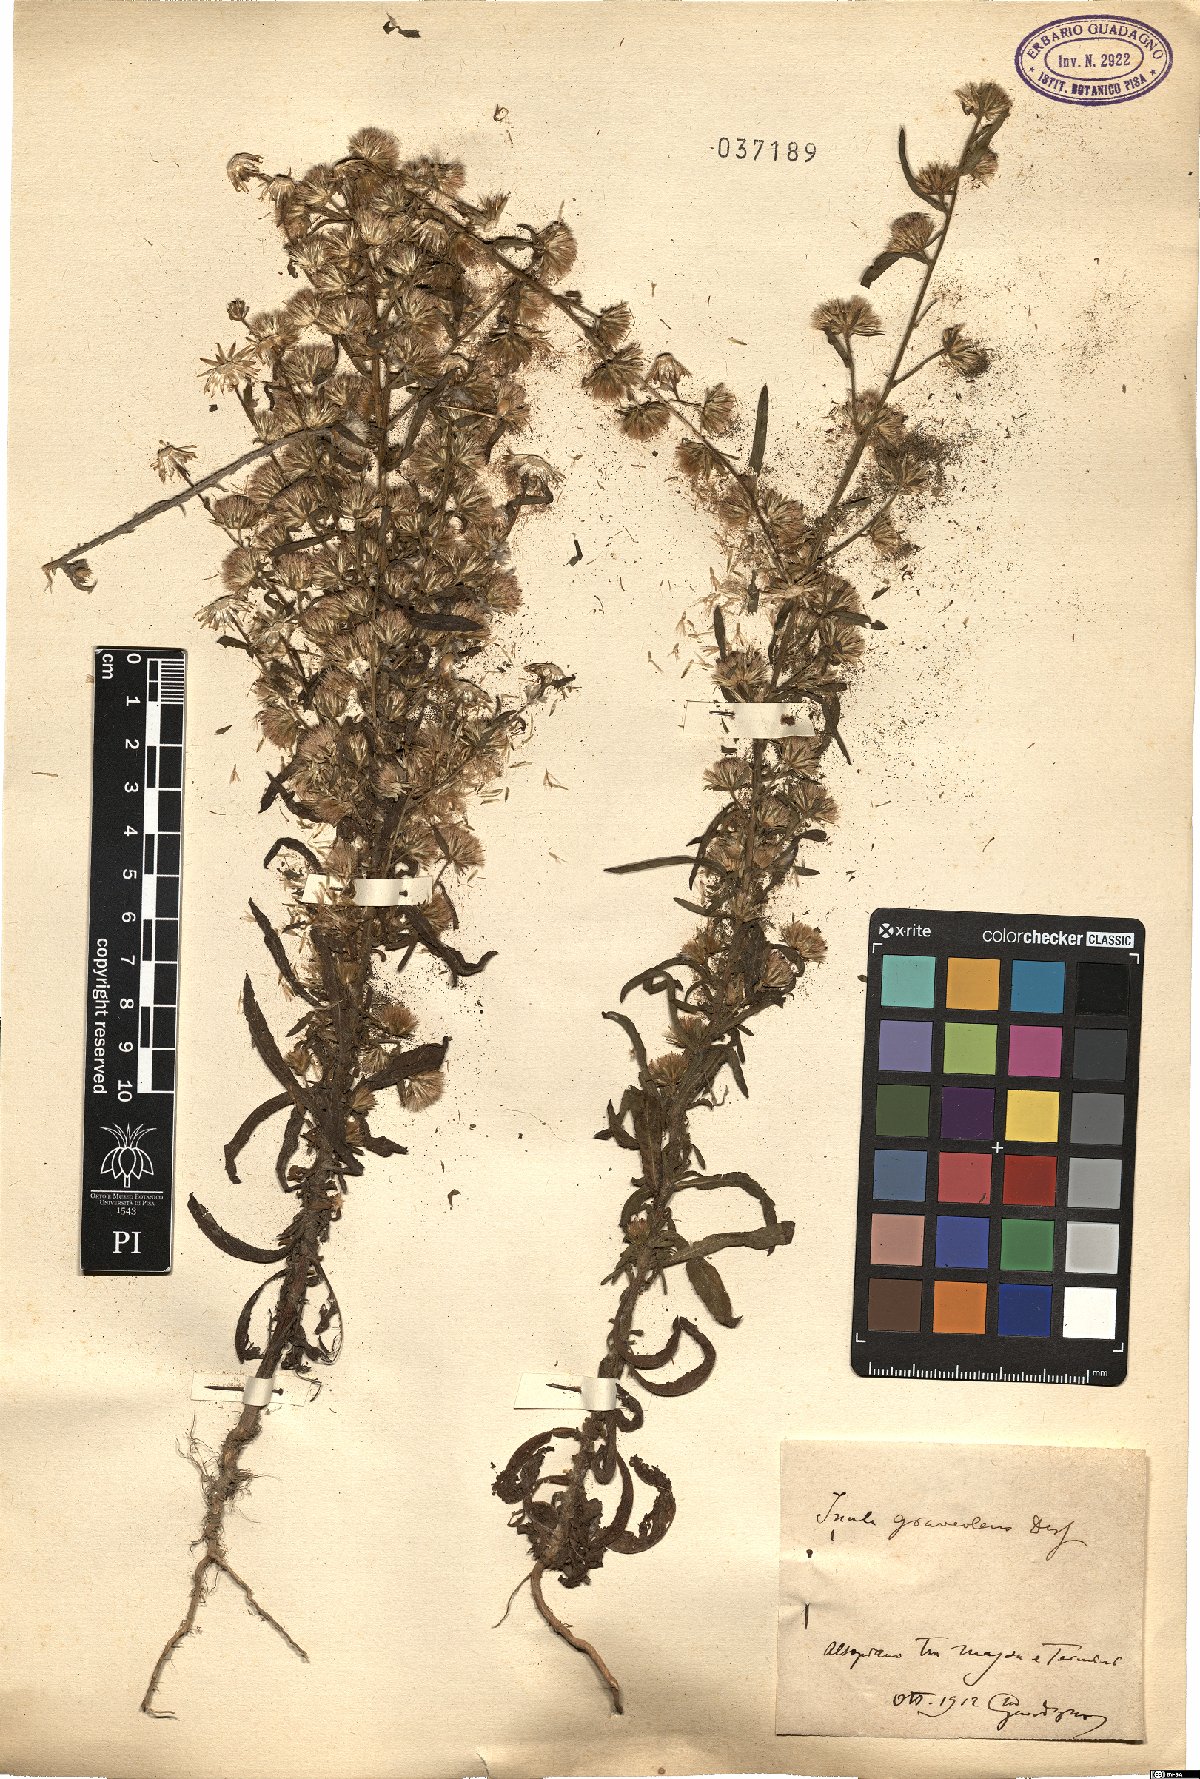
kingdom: Plantae
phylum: Tracheophyta
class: Magnoliopsida
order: Asterales
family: Asteraceae
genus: Dittrichia
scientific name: Dittrichia graveolens
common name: Stinking fleabane
